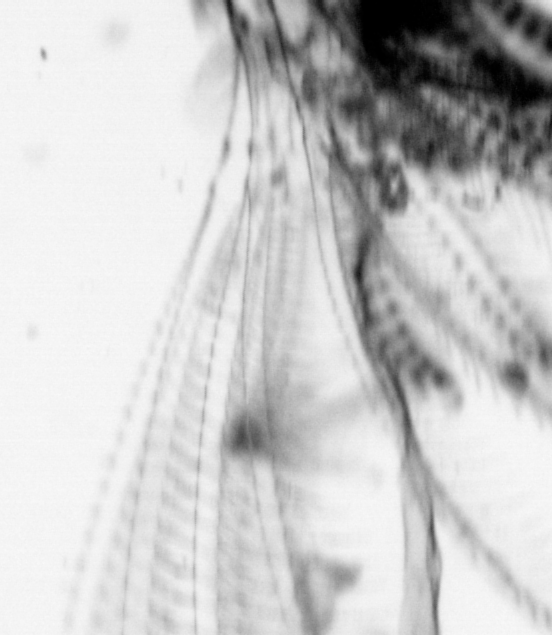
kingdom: Animalia
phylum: Chordata
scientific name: Chordata
